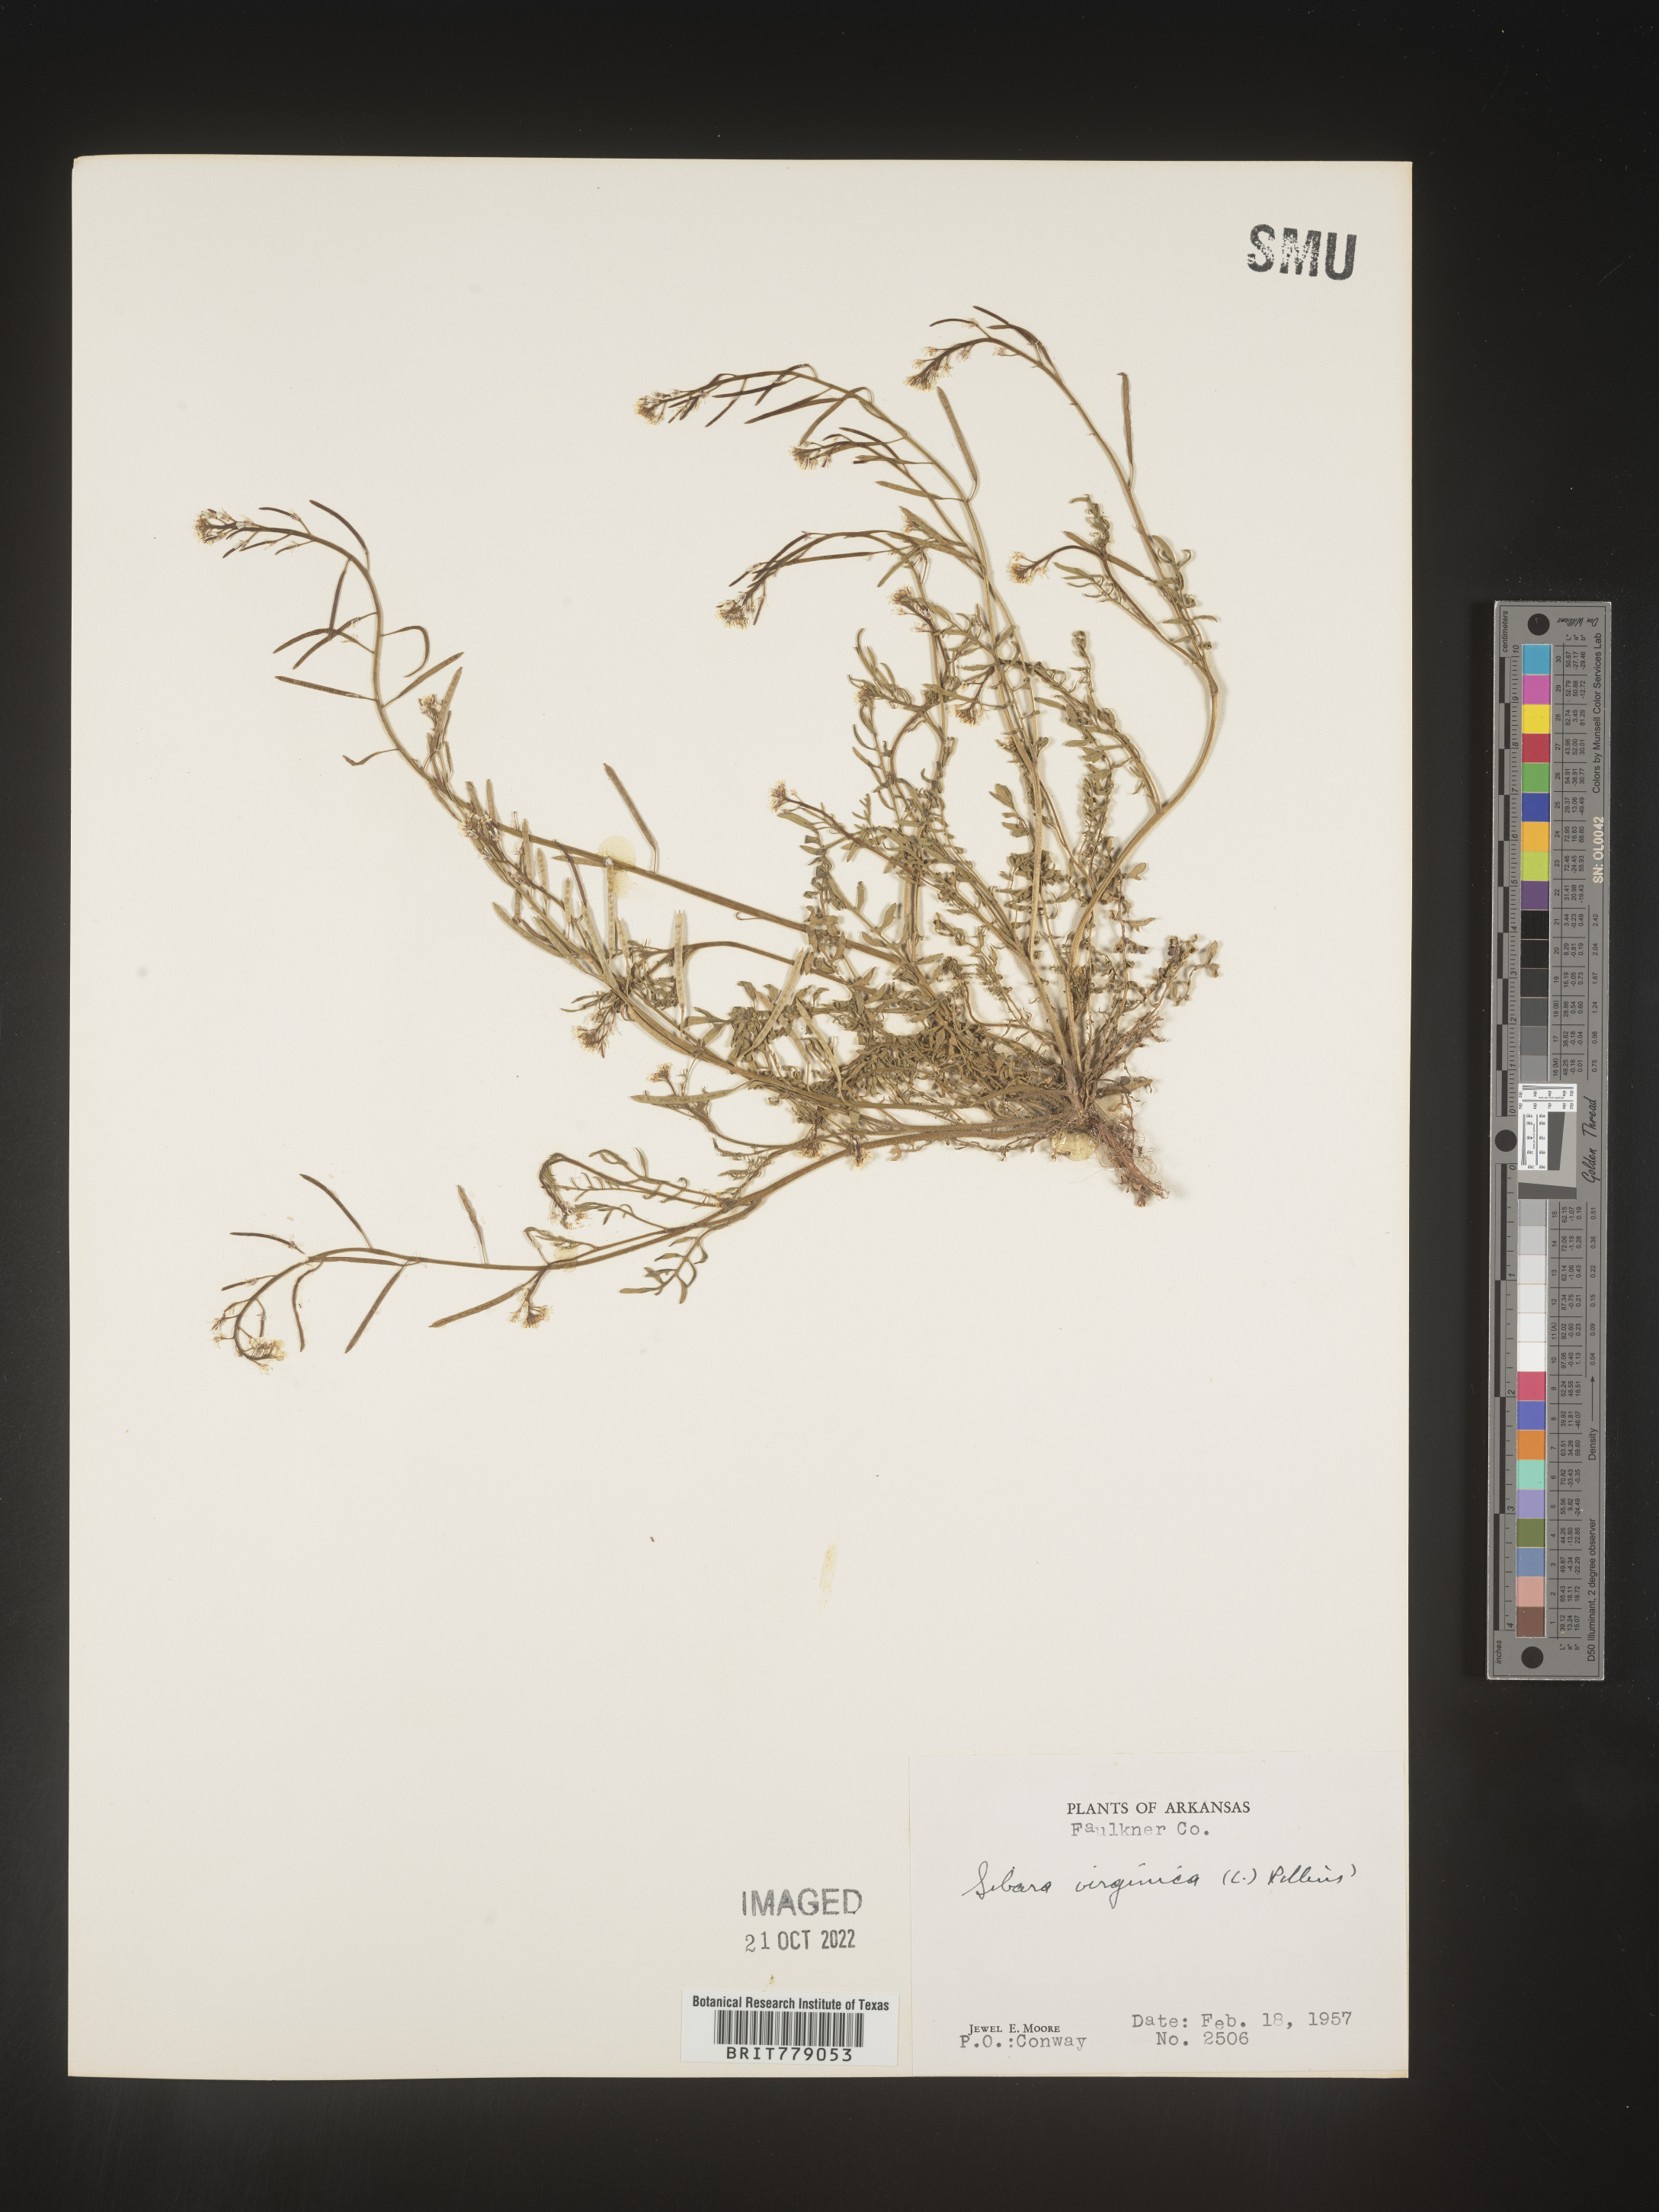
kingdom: Plantae
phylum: Tracheophyta
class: Magnoliopsida
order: Brassicales
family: Brassicaceae
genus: Sibara
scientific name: Sibara
